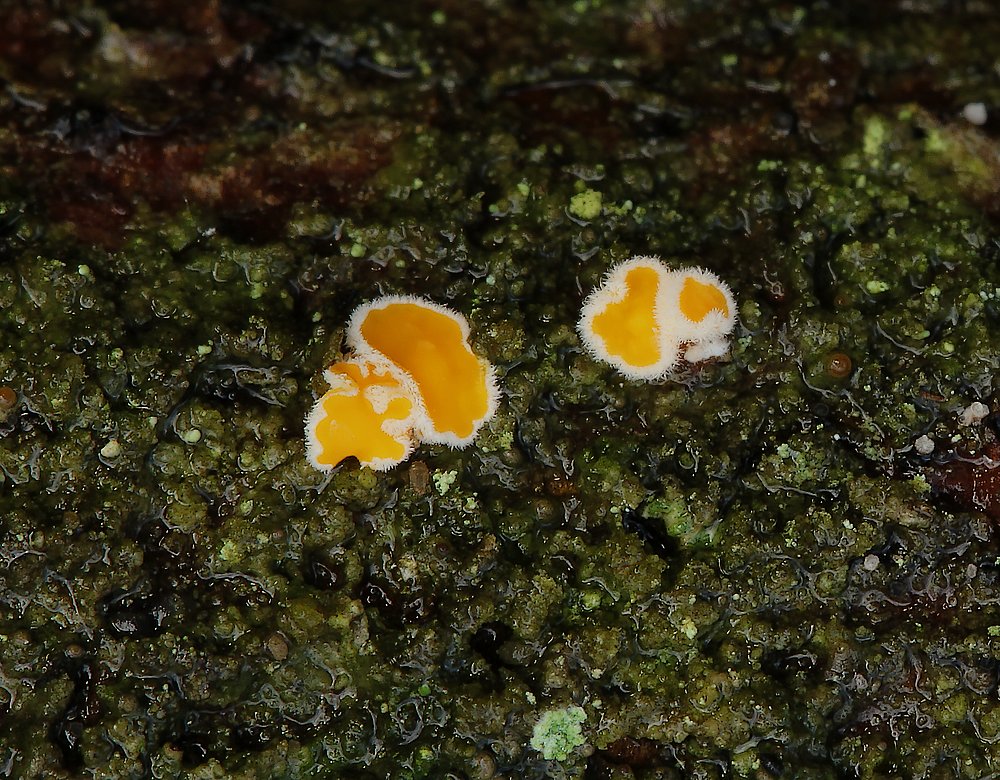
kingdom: Fungi
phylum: Ascomycota
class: Leotiomycetes
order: Helotiales
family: Lachnaceae
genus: Lachnellula
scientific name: Lachnellula calyciformis
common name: ædelgran-frynseskive
